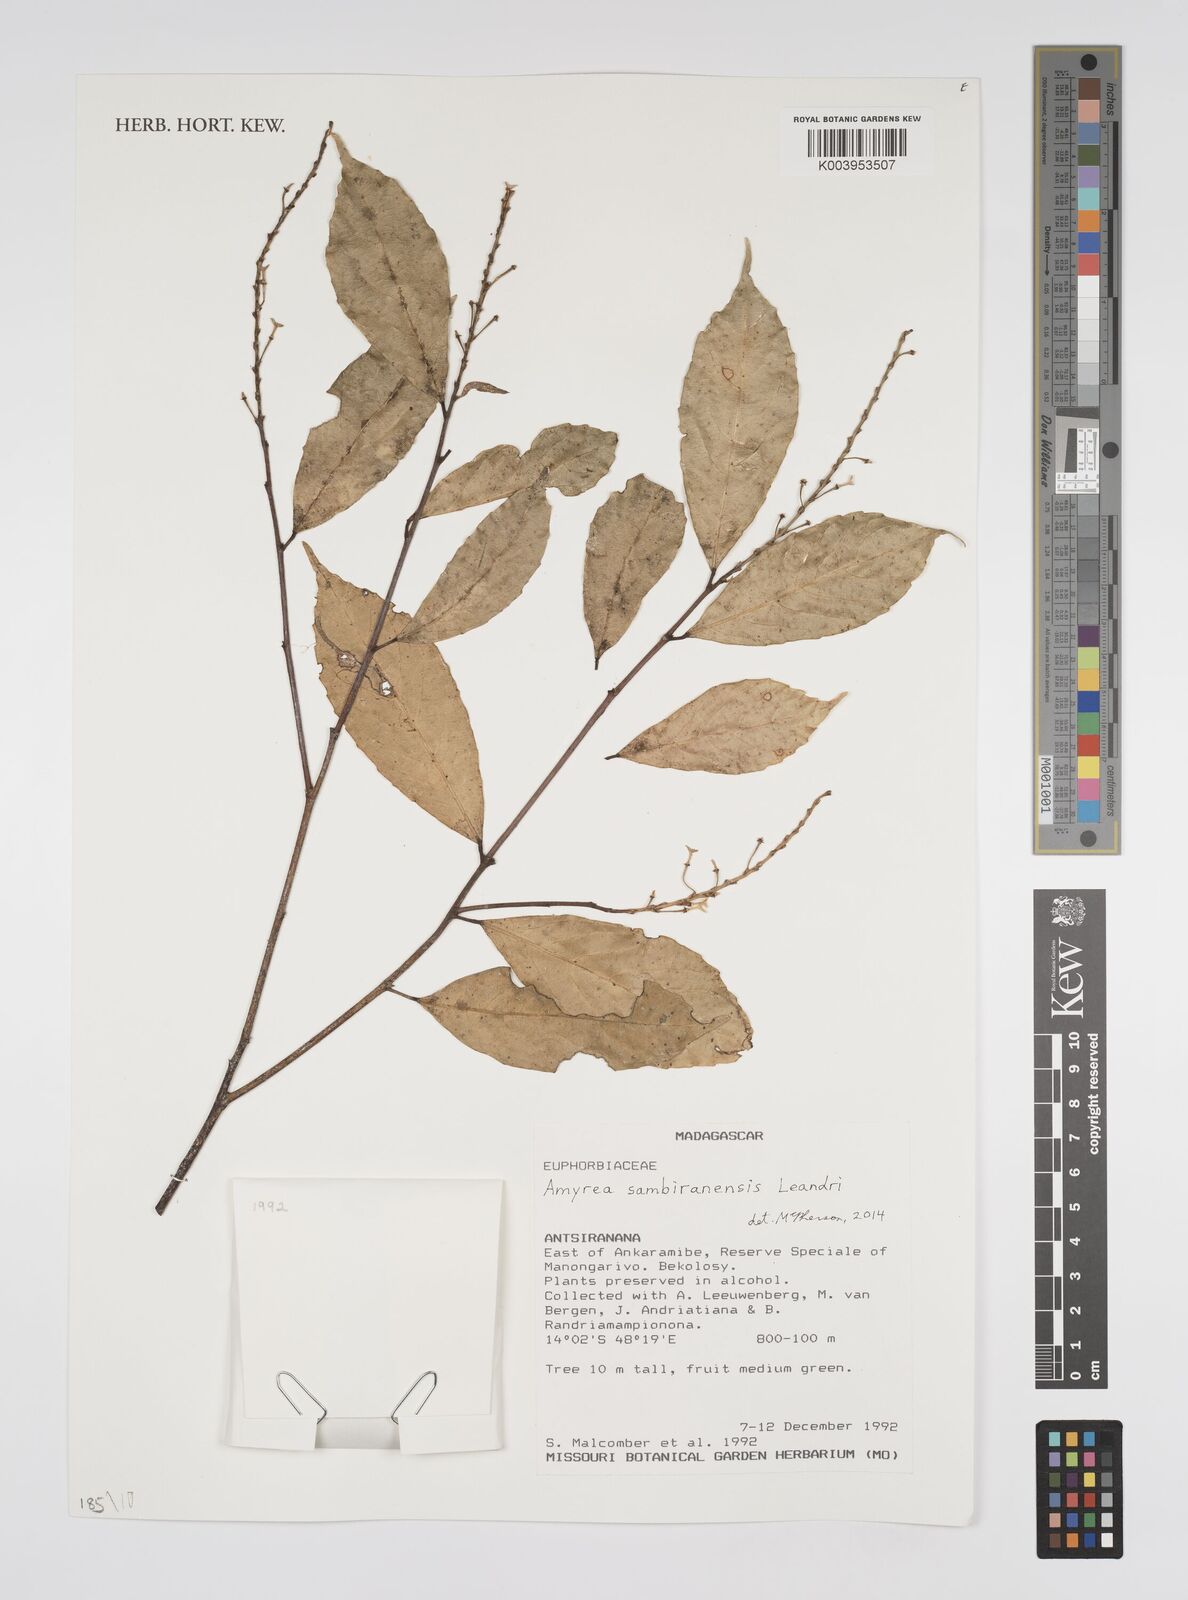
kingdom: Plantae
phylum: Tracheophyta
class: Magnoliopsida
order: Malpighiales
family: Euphorbiaceae
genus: Amyrea
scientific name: Amyrea sambiranensis
